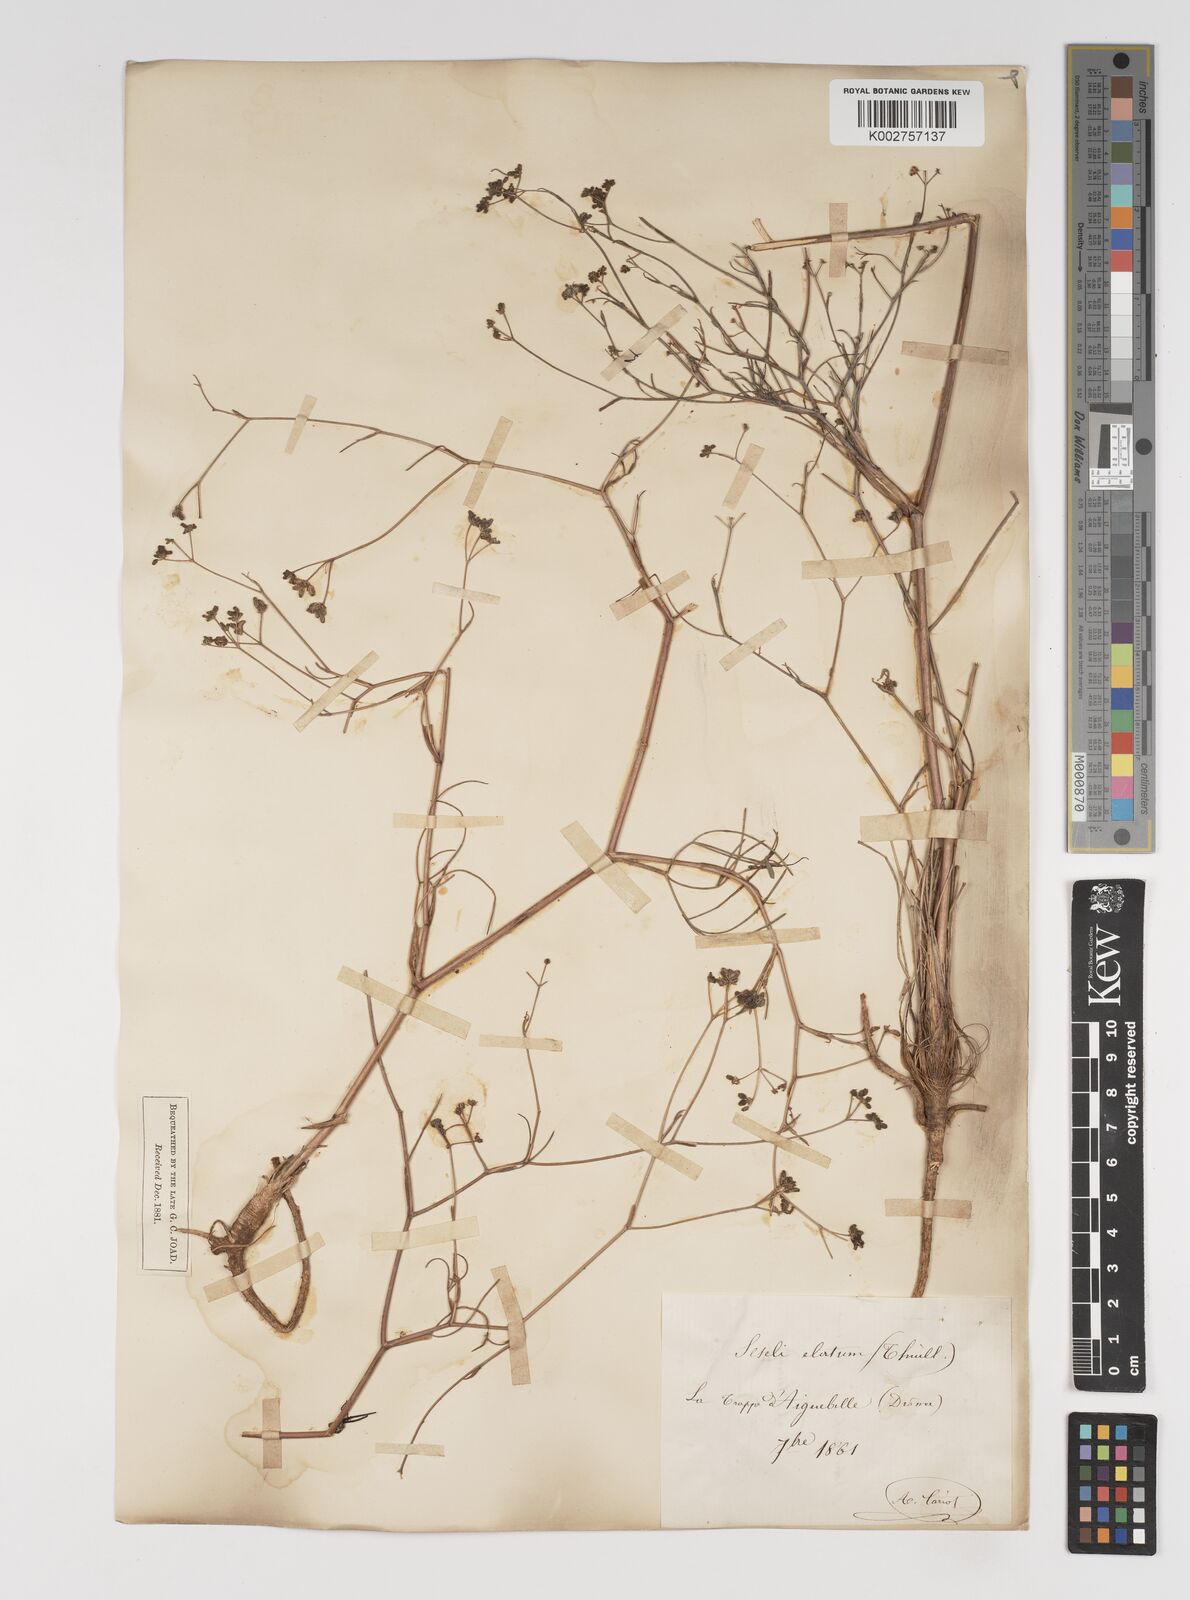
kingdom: Plantae
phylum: Tracheophyta
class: Magnoliopsida
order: Apiales
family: Apiaceae
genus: Seseli
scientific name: Seseli longifolium
